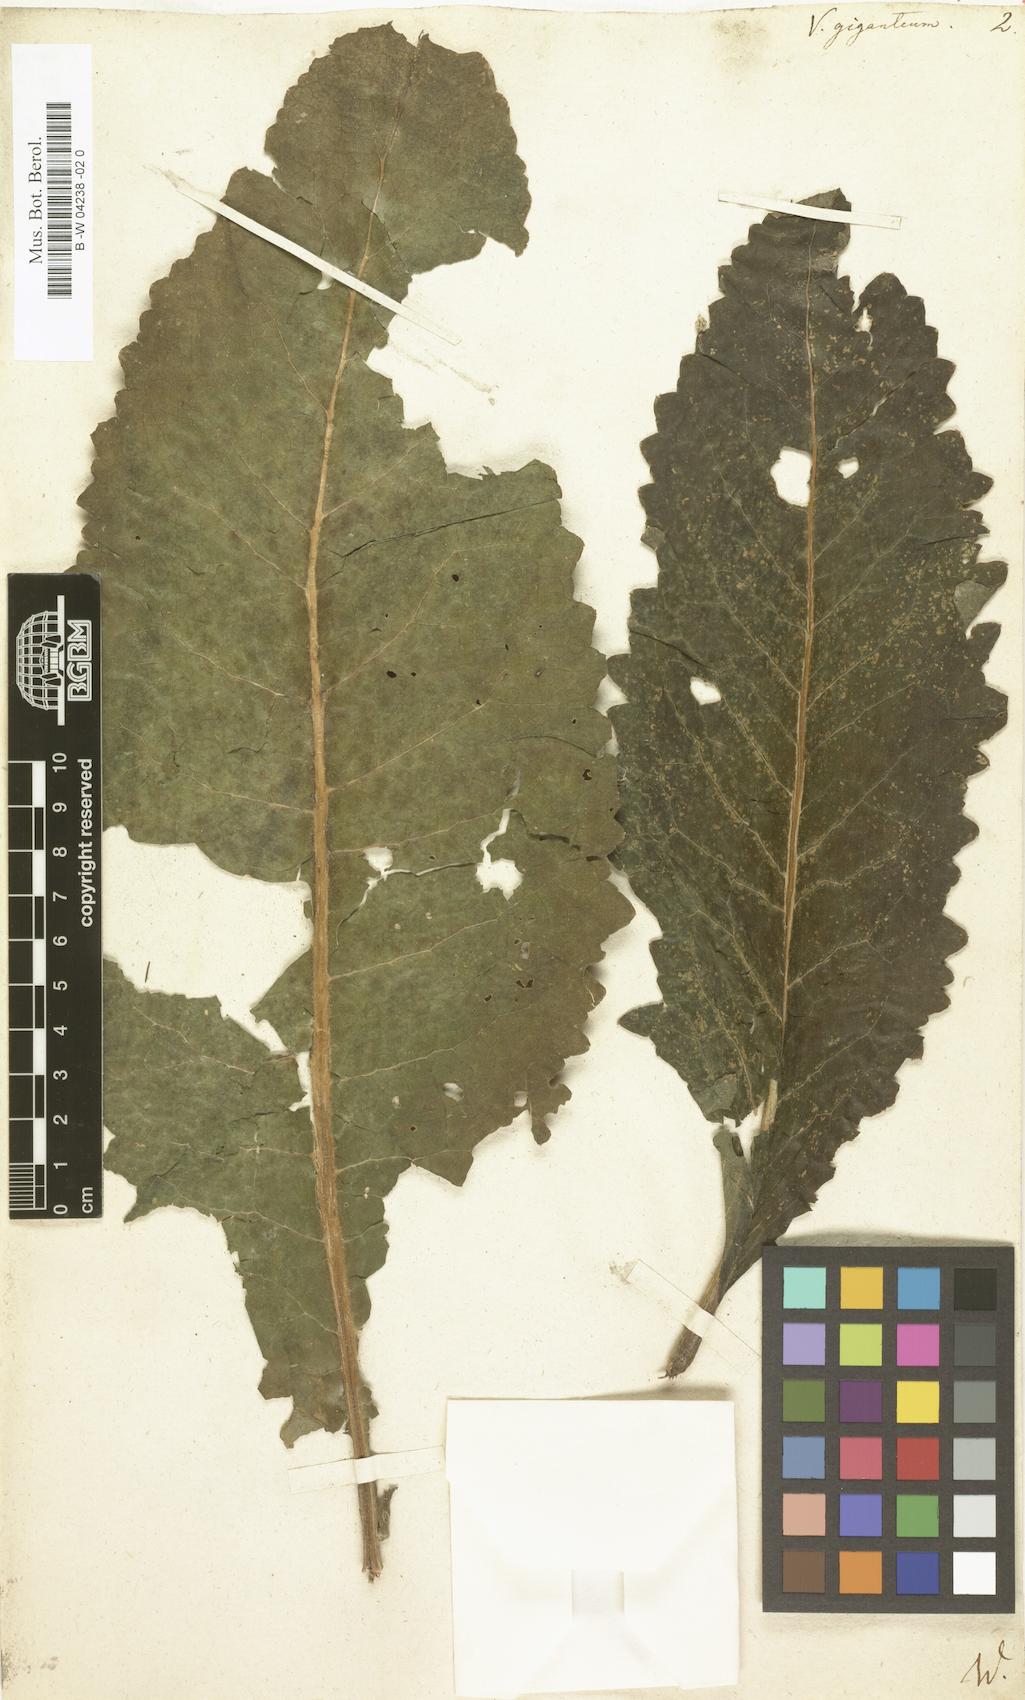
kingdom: Plantae
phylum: Tracheophyta
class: Magnoliopsida
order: Lamiales
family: Scrophulariaceae
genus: Verbascum
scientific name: Verbascum giganteum
